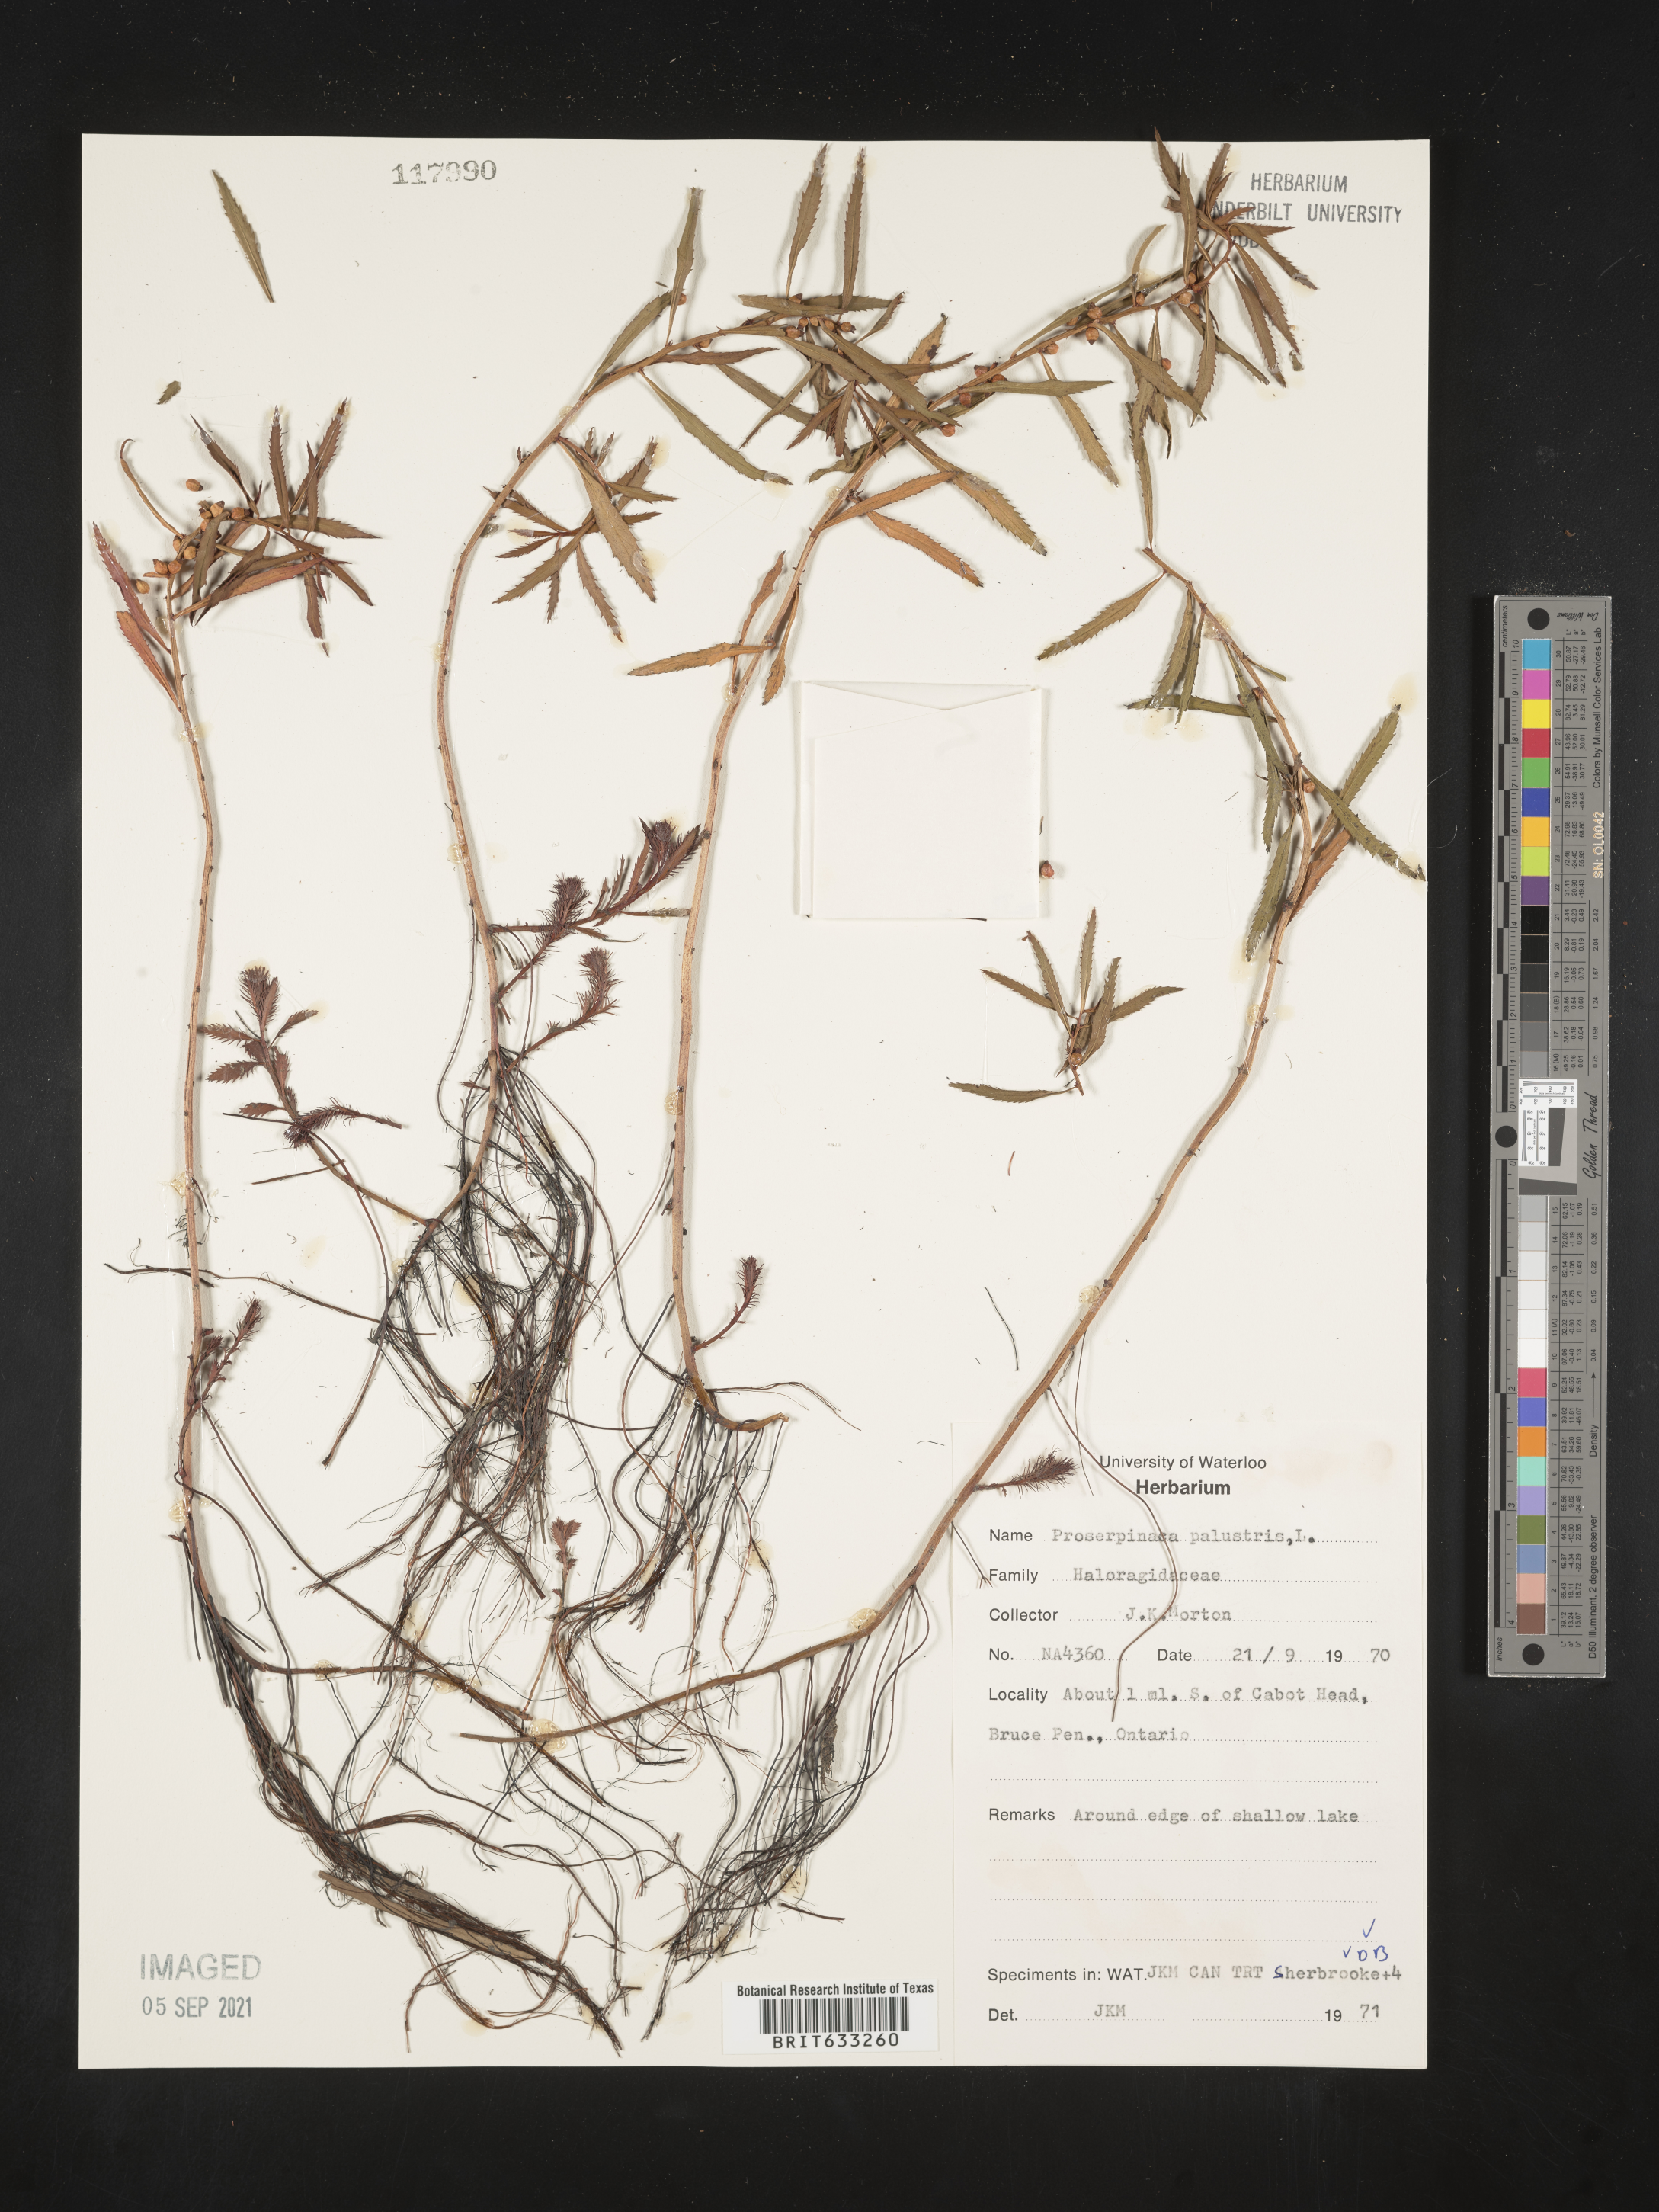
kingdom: Plantae
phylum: Tracheophyta
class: Magnoliopsida
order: Saxifragales
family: Haloragaceae
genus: Proserpinaca
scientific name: Proserpinaca
